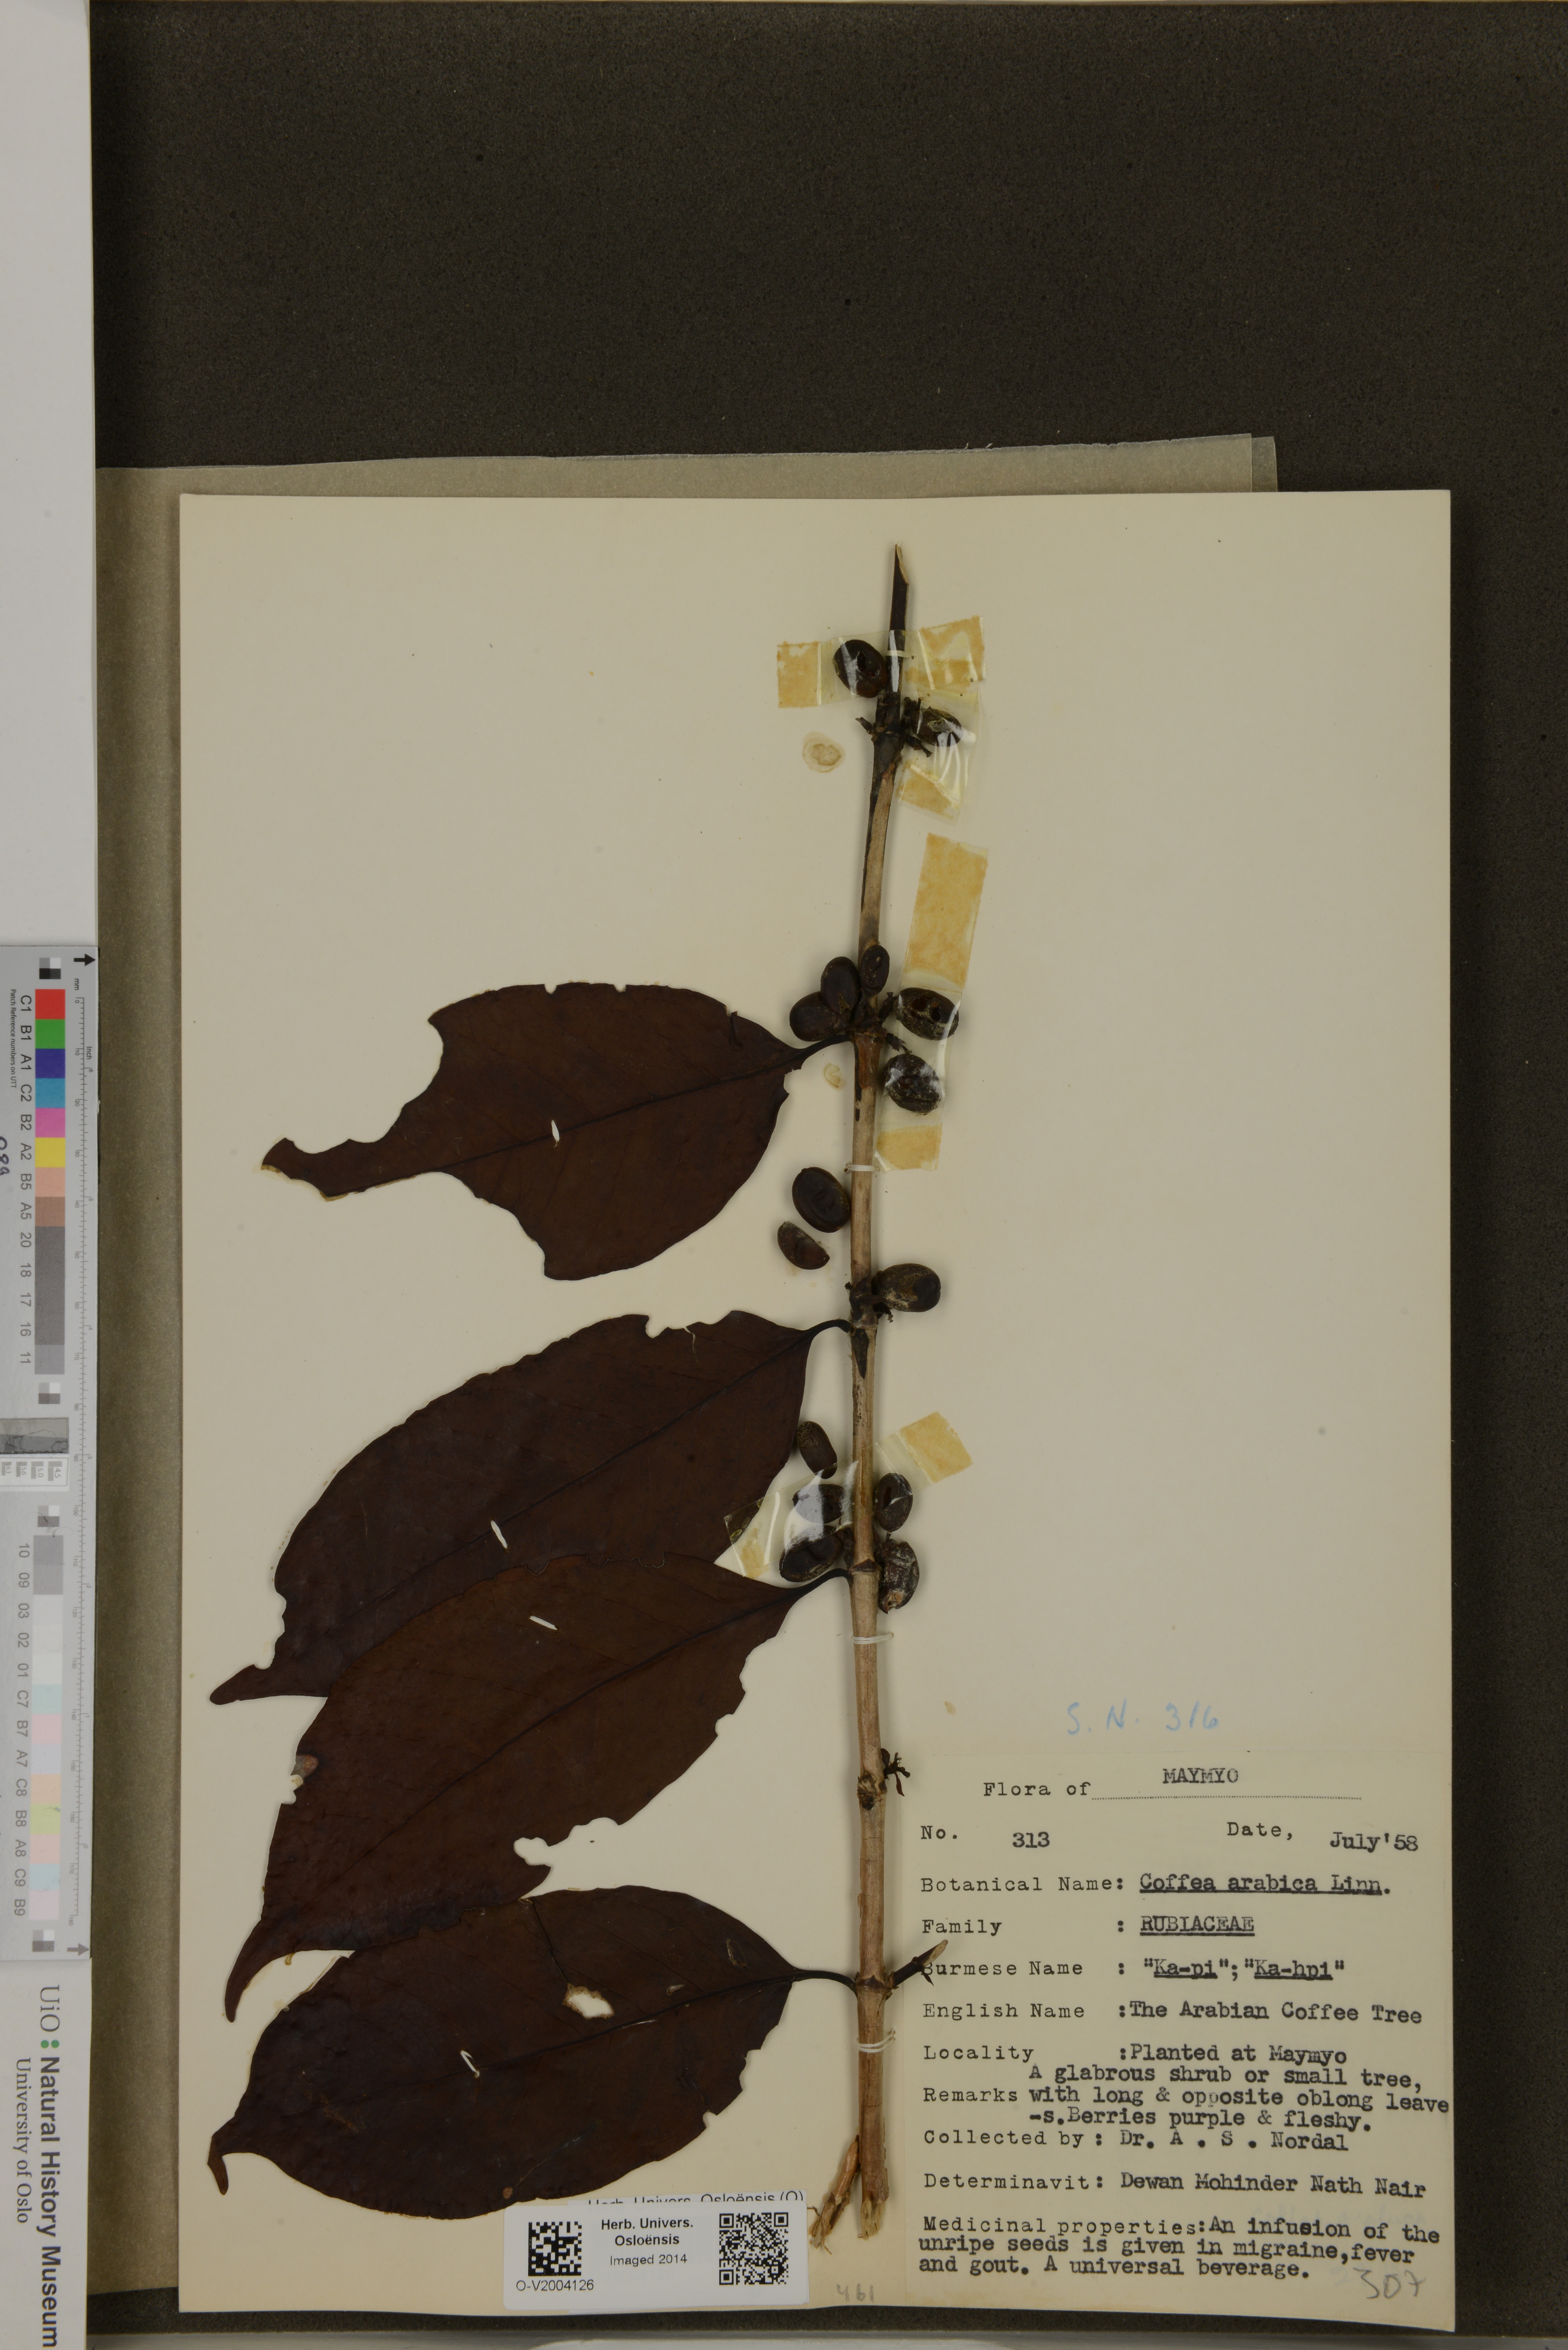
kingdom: Plantae
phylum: Tracheophyta
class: Magnoliopsida
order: Gentianales
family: Rubiaceae
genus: Coffea
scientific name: Coffea arabica
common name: Coffee
